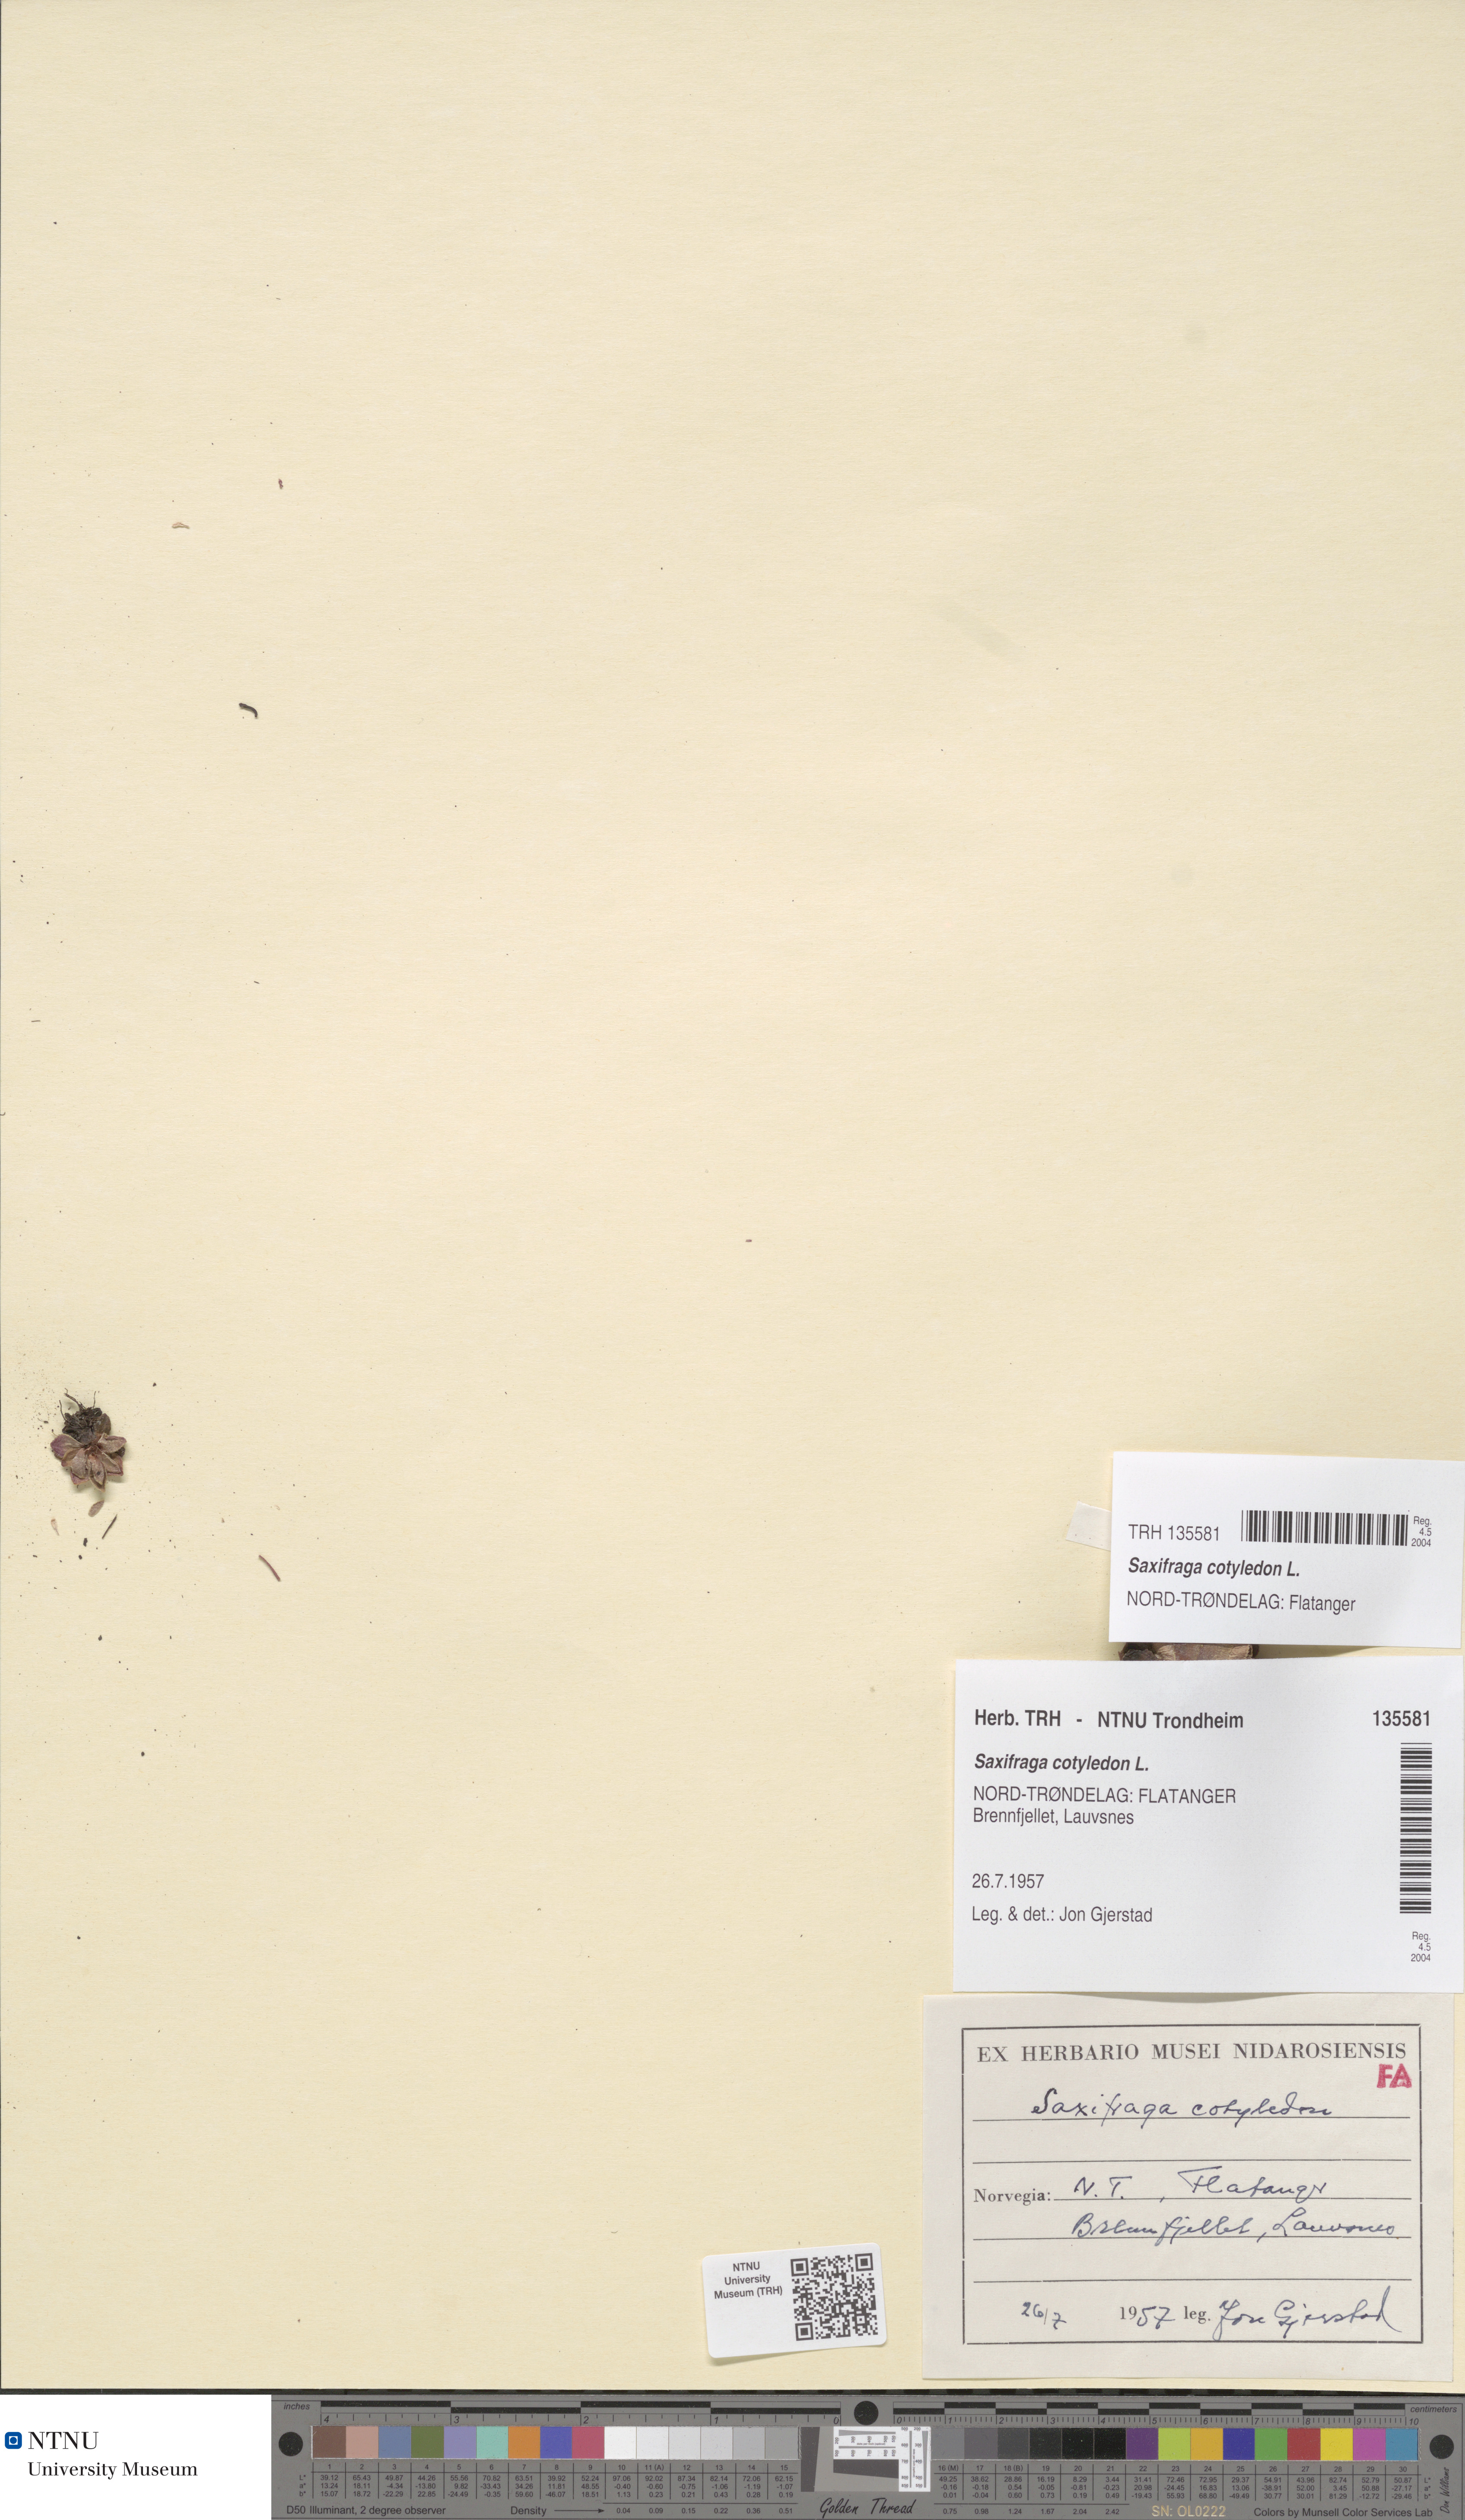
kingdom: Plantae
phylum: Tracheophyta
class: Magnoliopsida
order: Saxifragales
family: Saxifragaceae
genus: Saxifraga
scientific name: Saxifraga cotyledon
